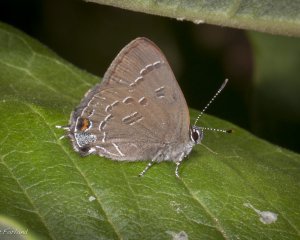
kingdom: Animalia
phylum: Arthropoda
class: Insecta
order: Lepidoptera
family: Lycaenidae
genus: Satyrium
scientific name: Satyrium calanus
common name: Banded Hairstreak
